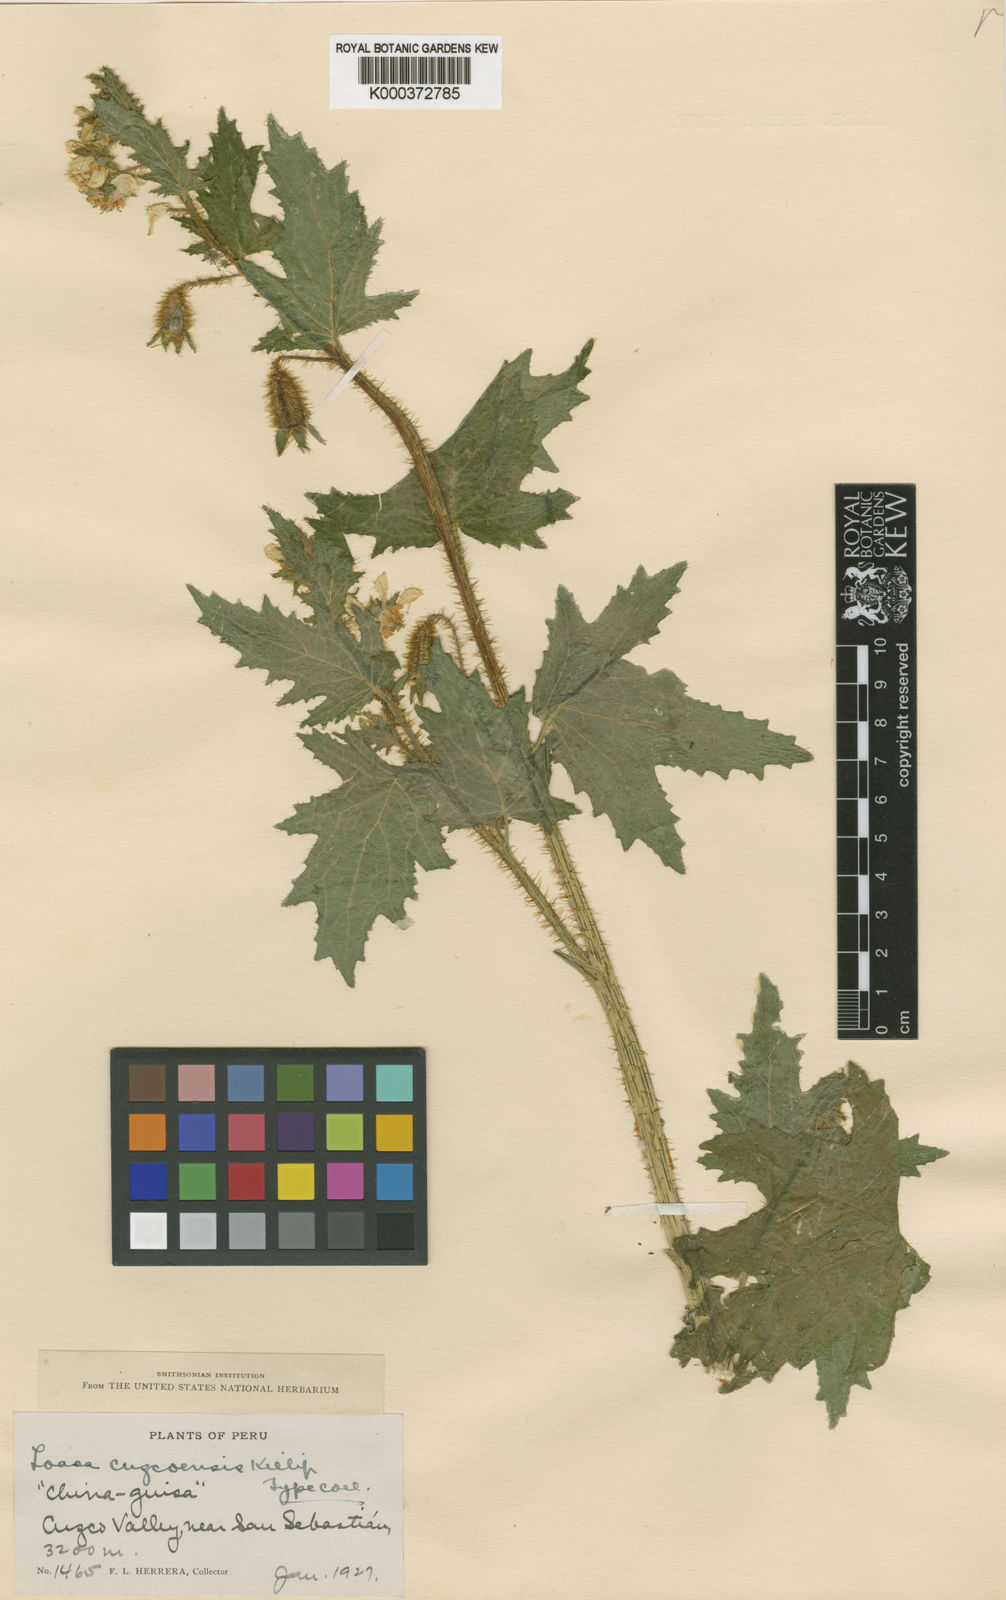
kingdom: Plantae
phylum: Tracheophyta
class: Magnoliopsida
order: Cornales
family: Loasaceae
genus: Nasa
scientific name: Nasa poissoniana
